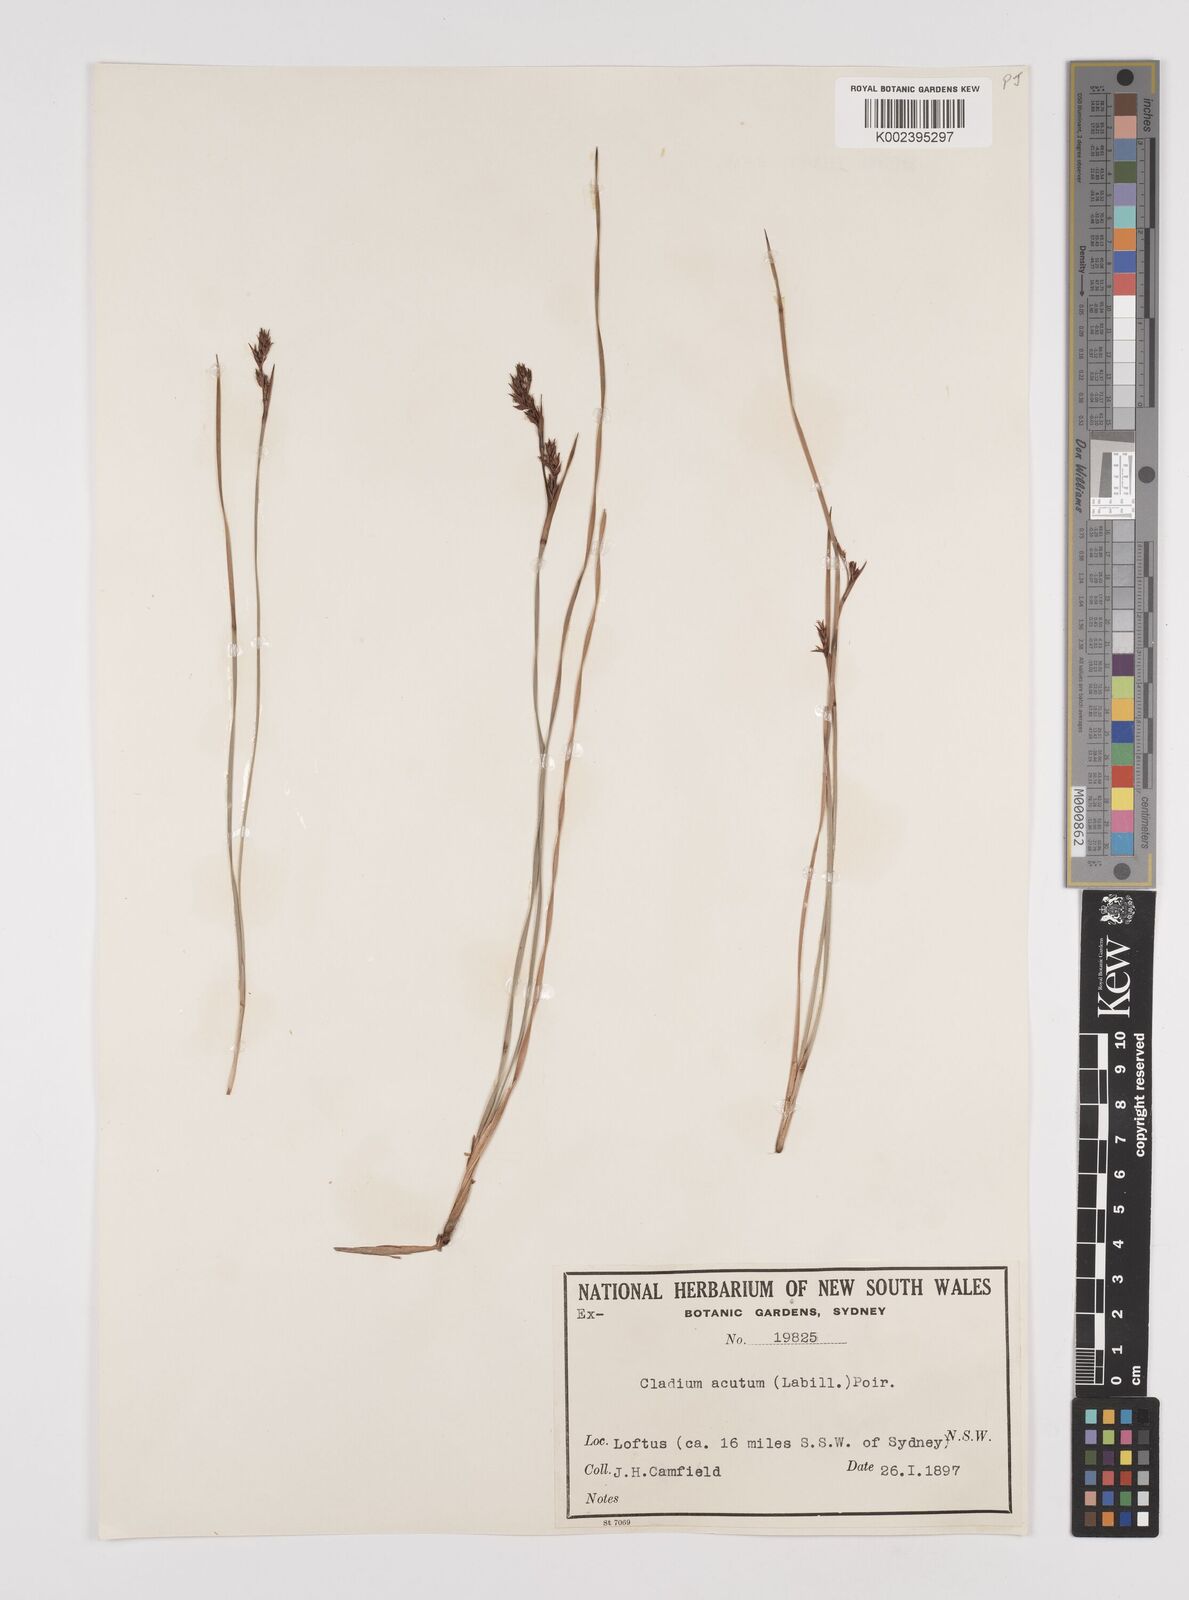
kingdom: Plantae
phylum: Tracheophyta
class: Liliopsida
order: Poales
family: Cyperaceae
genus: Machaerina
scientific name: Machaerina acuta
